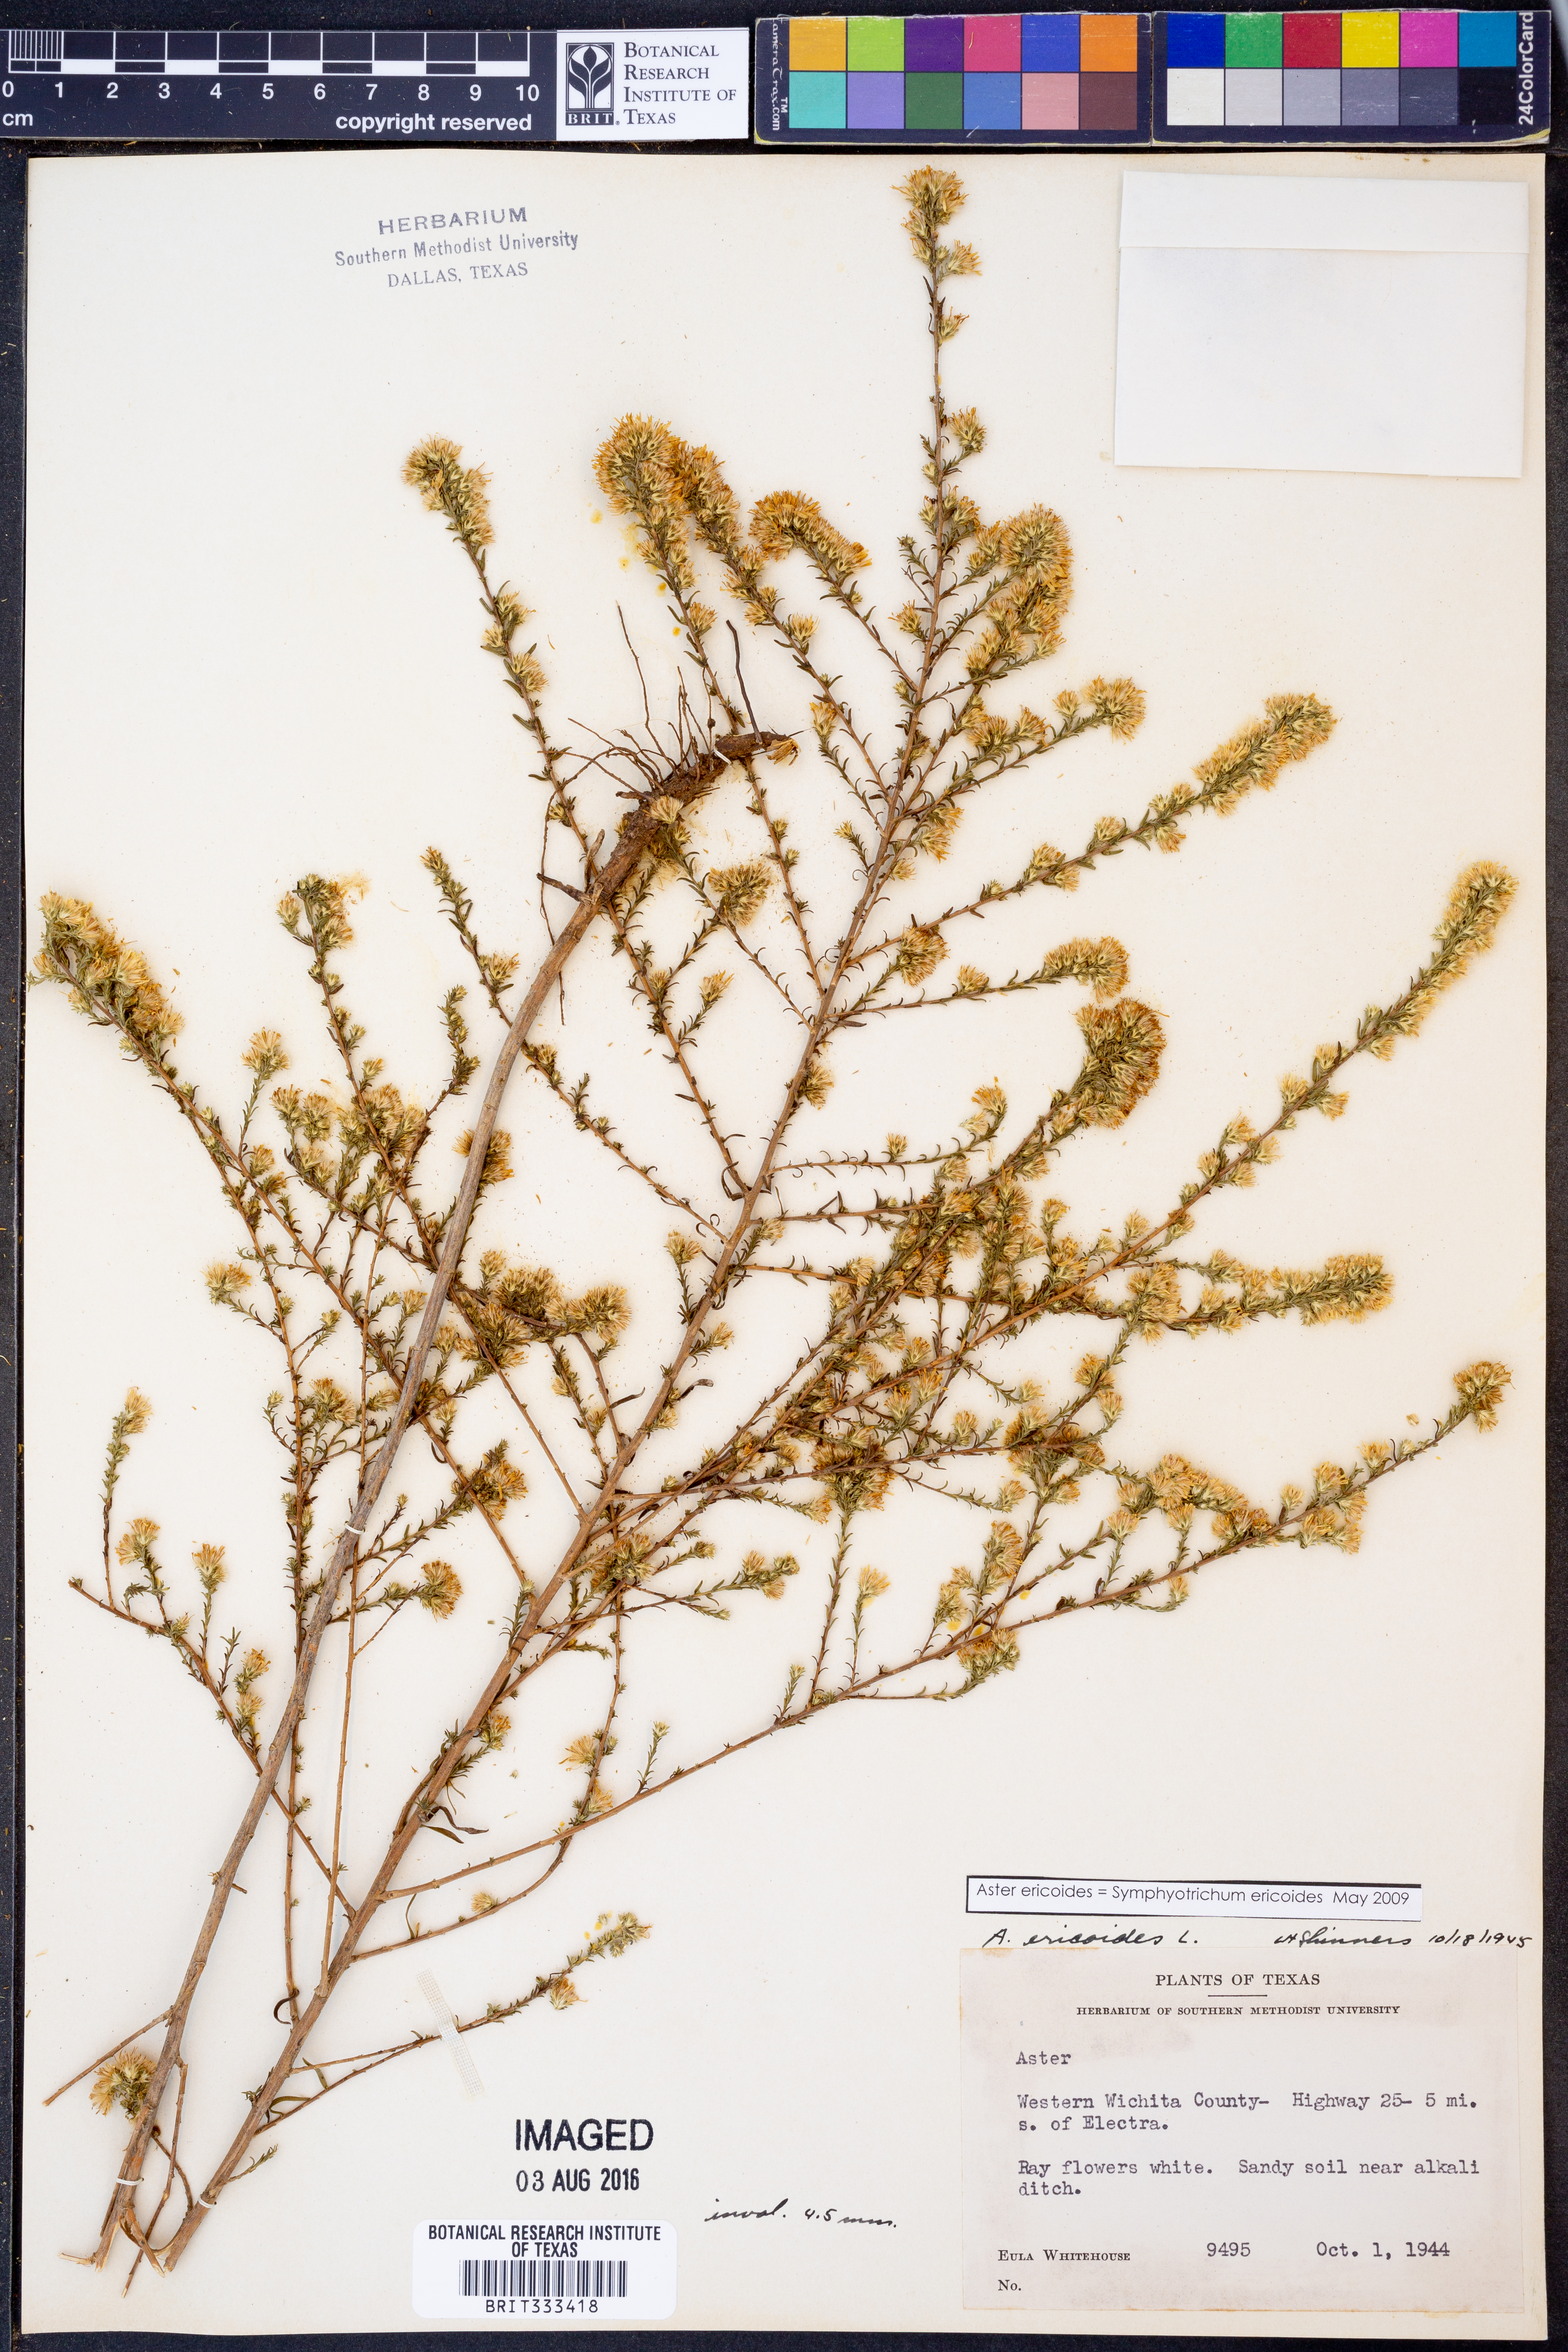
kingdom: Plantae
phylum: Tracheophyta
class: Magnoliopsida
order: Asterales
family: Asteraceae
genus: Symphyotrichum
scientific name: Symphyotrichum ericoides
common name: Heath aster
